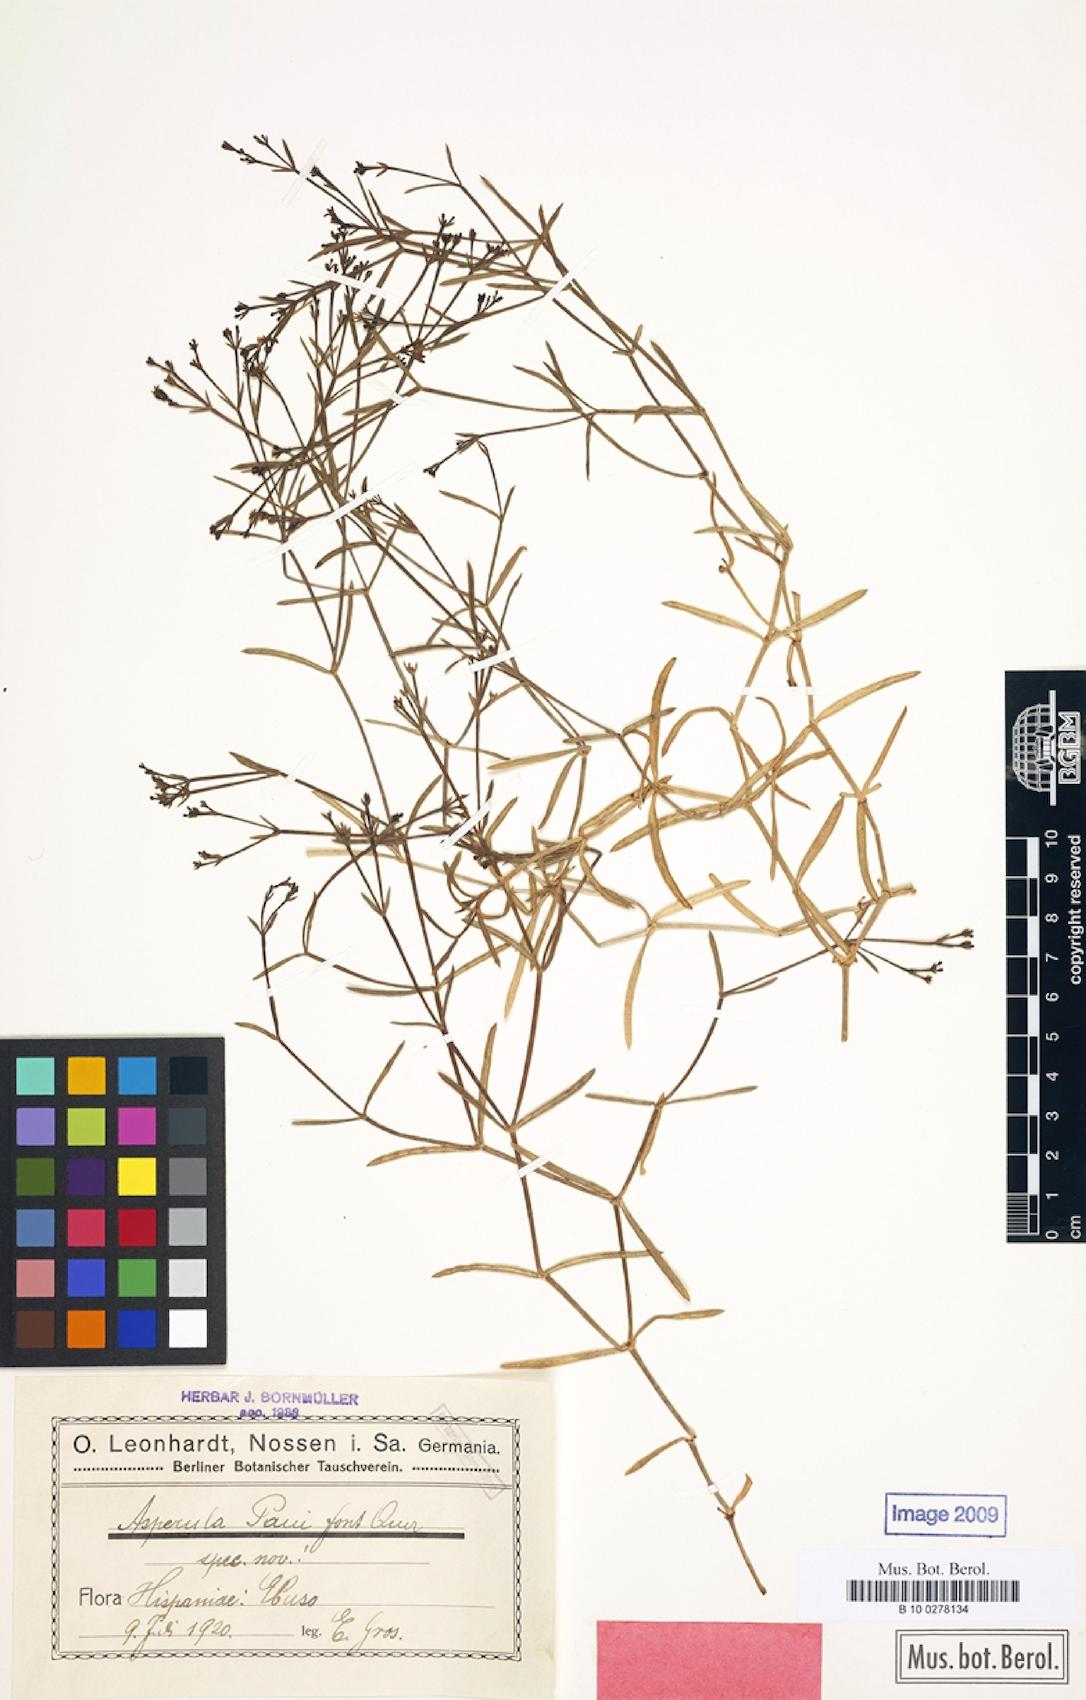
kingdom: Plantae
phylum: Tracheophyta
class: Magnoliopsida
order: Gentianales
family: Rubiaceae
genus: Cynanchica
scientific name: Cynanchica paui
